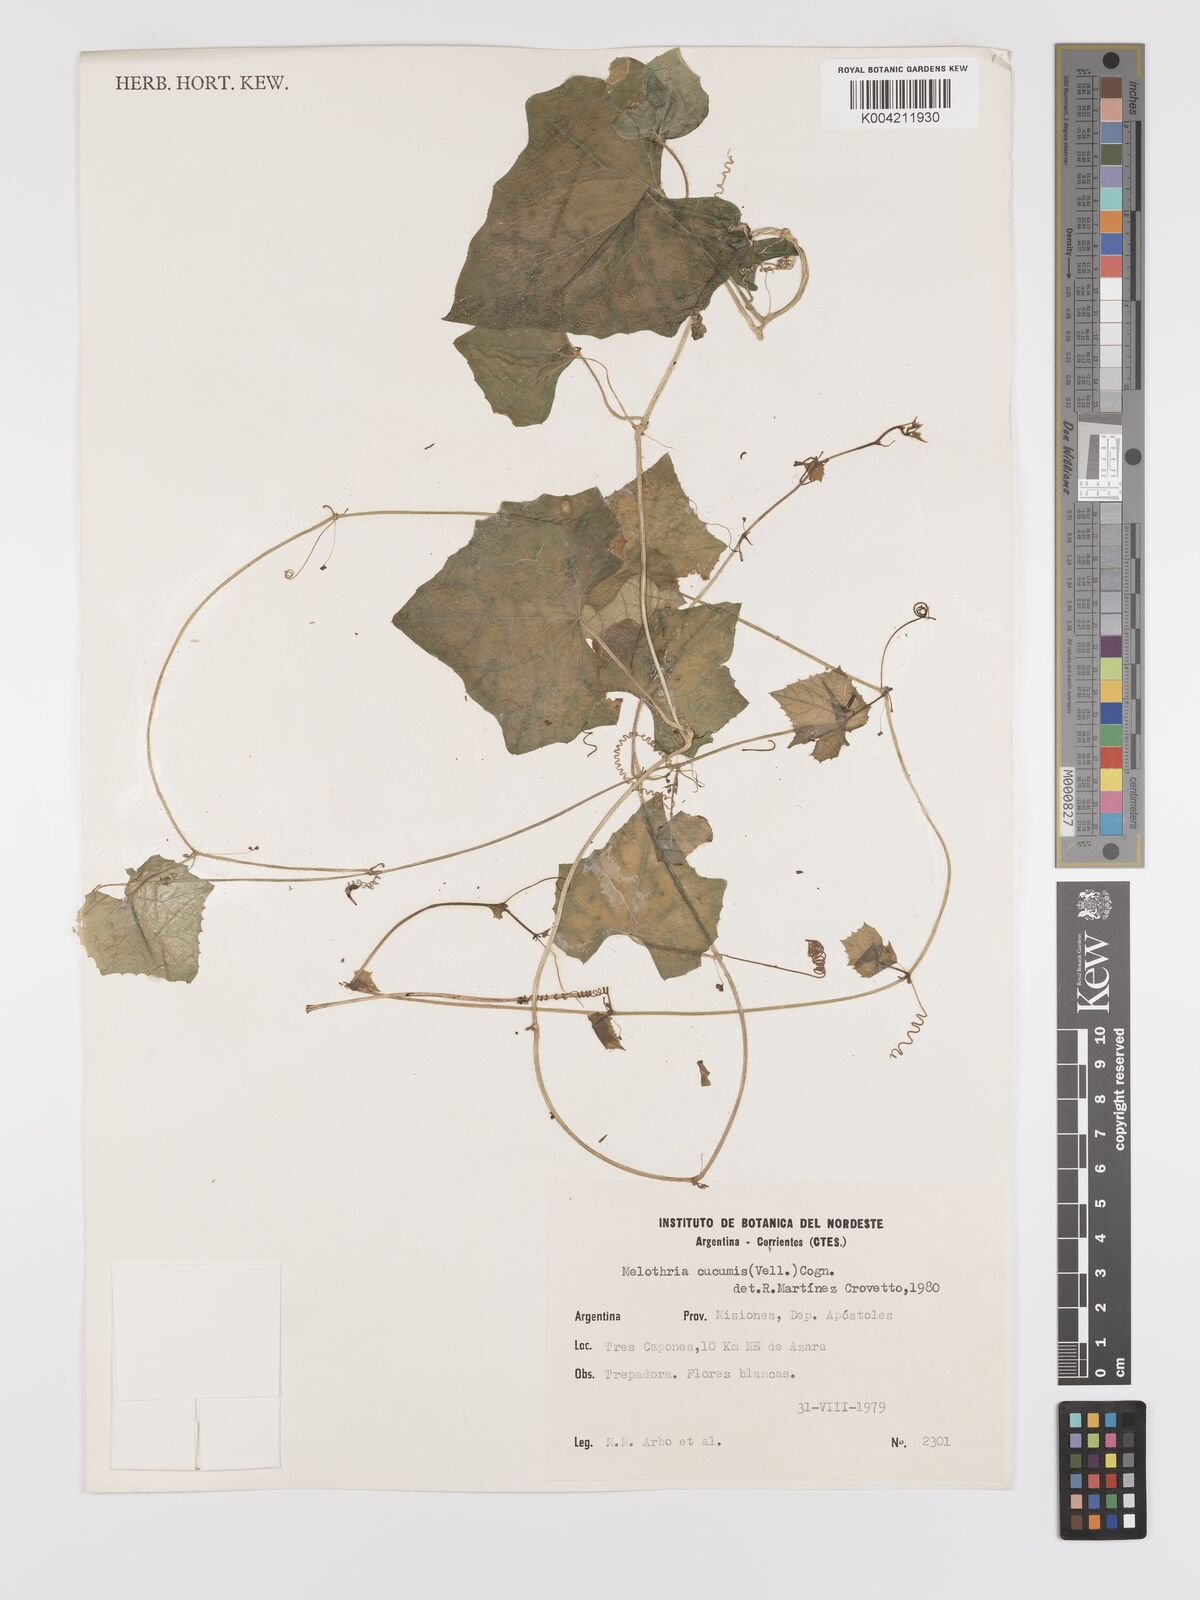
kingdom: Plantae
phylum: Tracheophyta
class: Magnoliopsida
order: Cucurbitales
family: Cucurbitaceae
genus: Melothria
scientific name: Melothria cucumis
